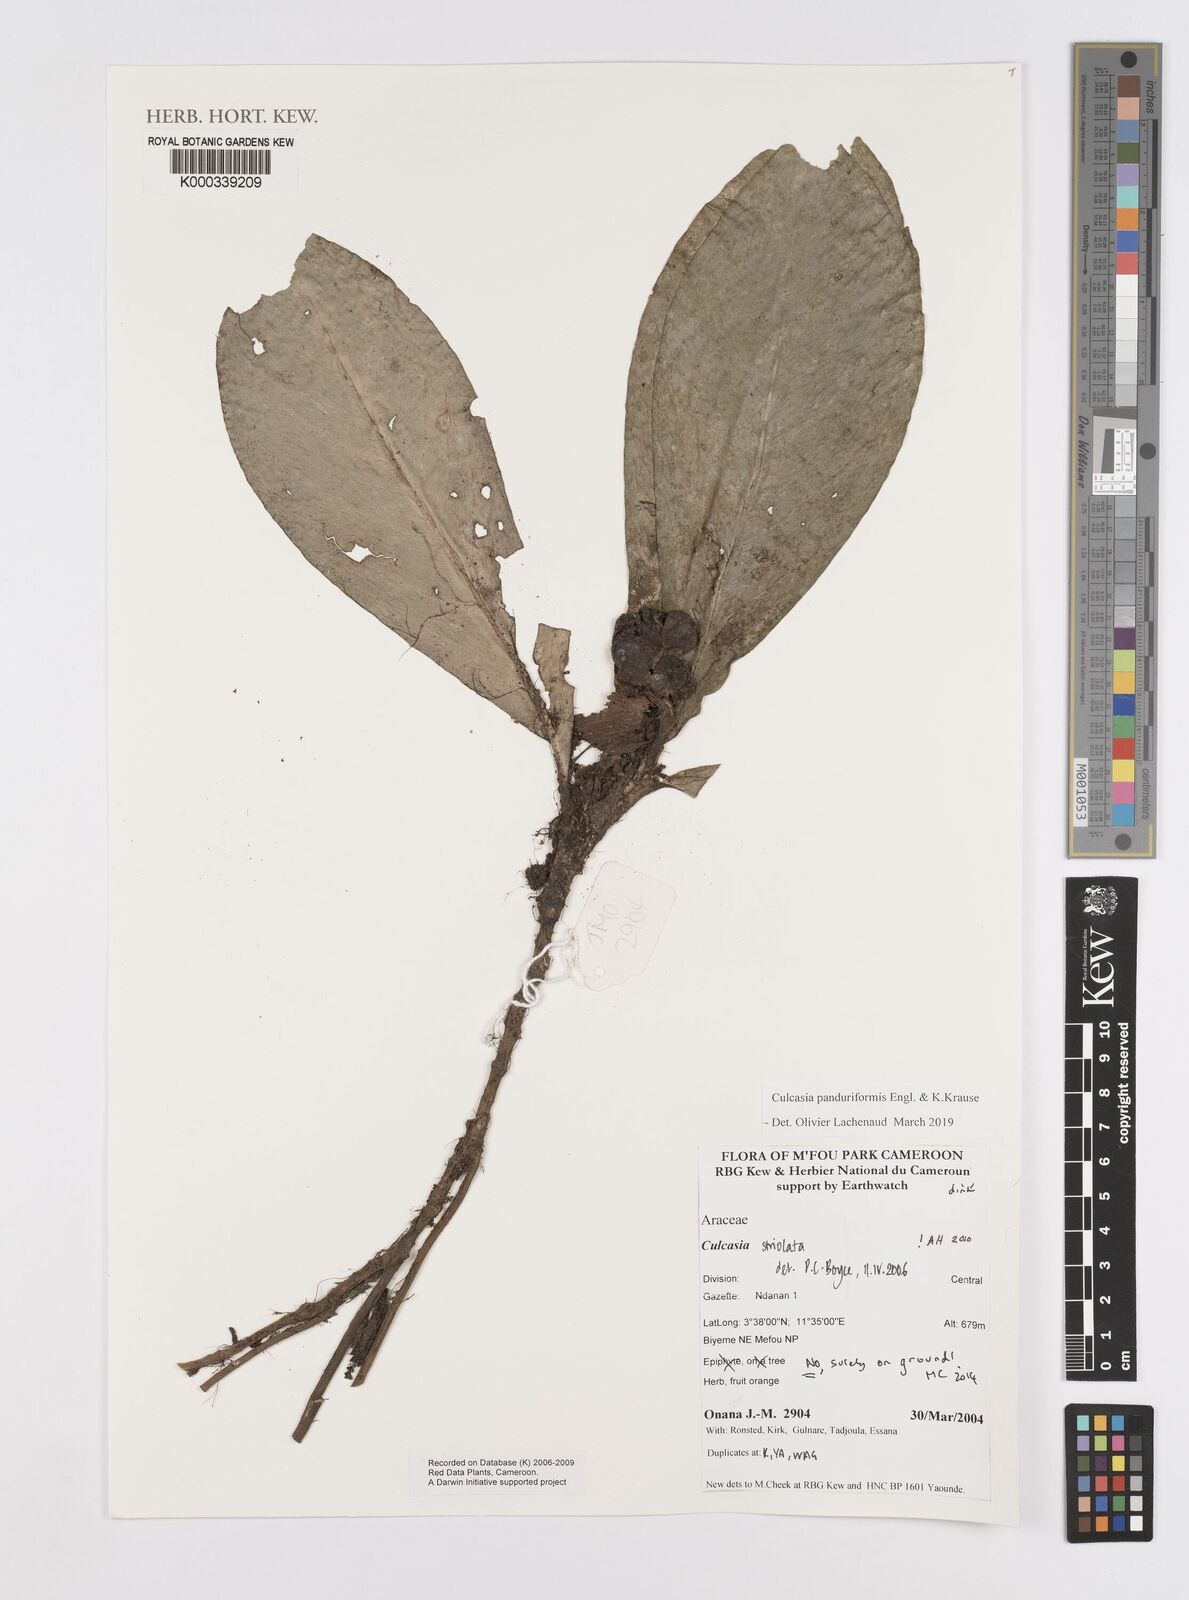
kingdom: Plantae
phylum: Tracheophyta
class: Liliopsida
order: Alismatales
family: Araceae
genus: Culcasia
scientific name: Culcasia panduriformis
